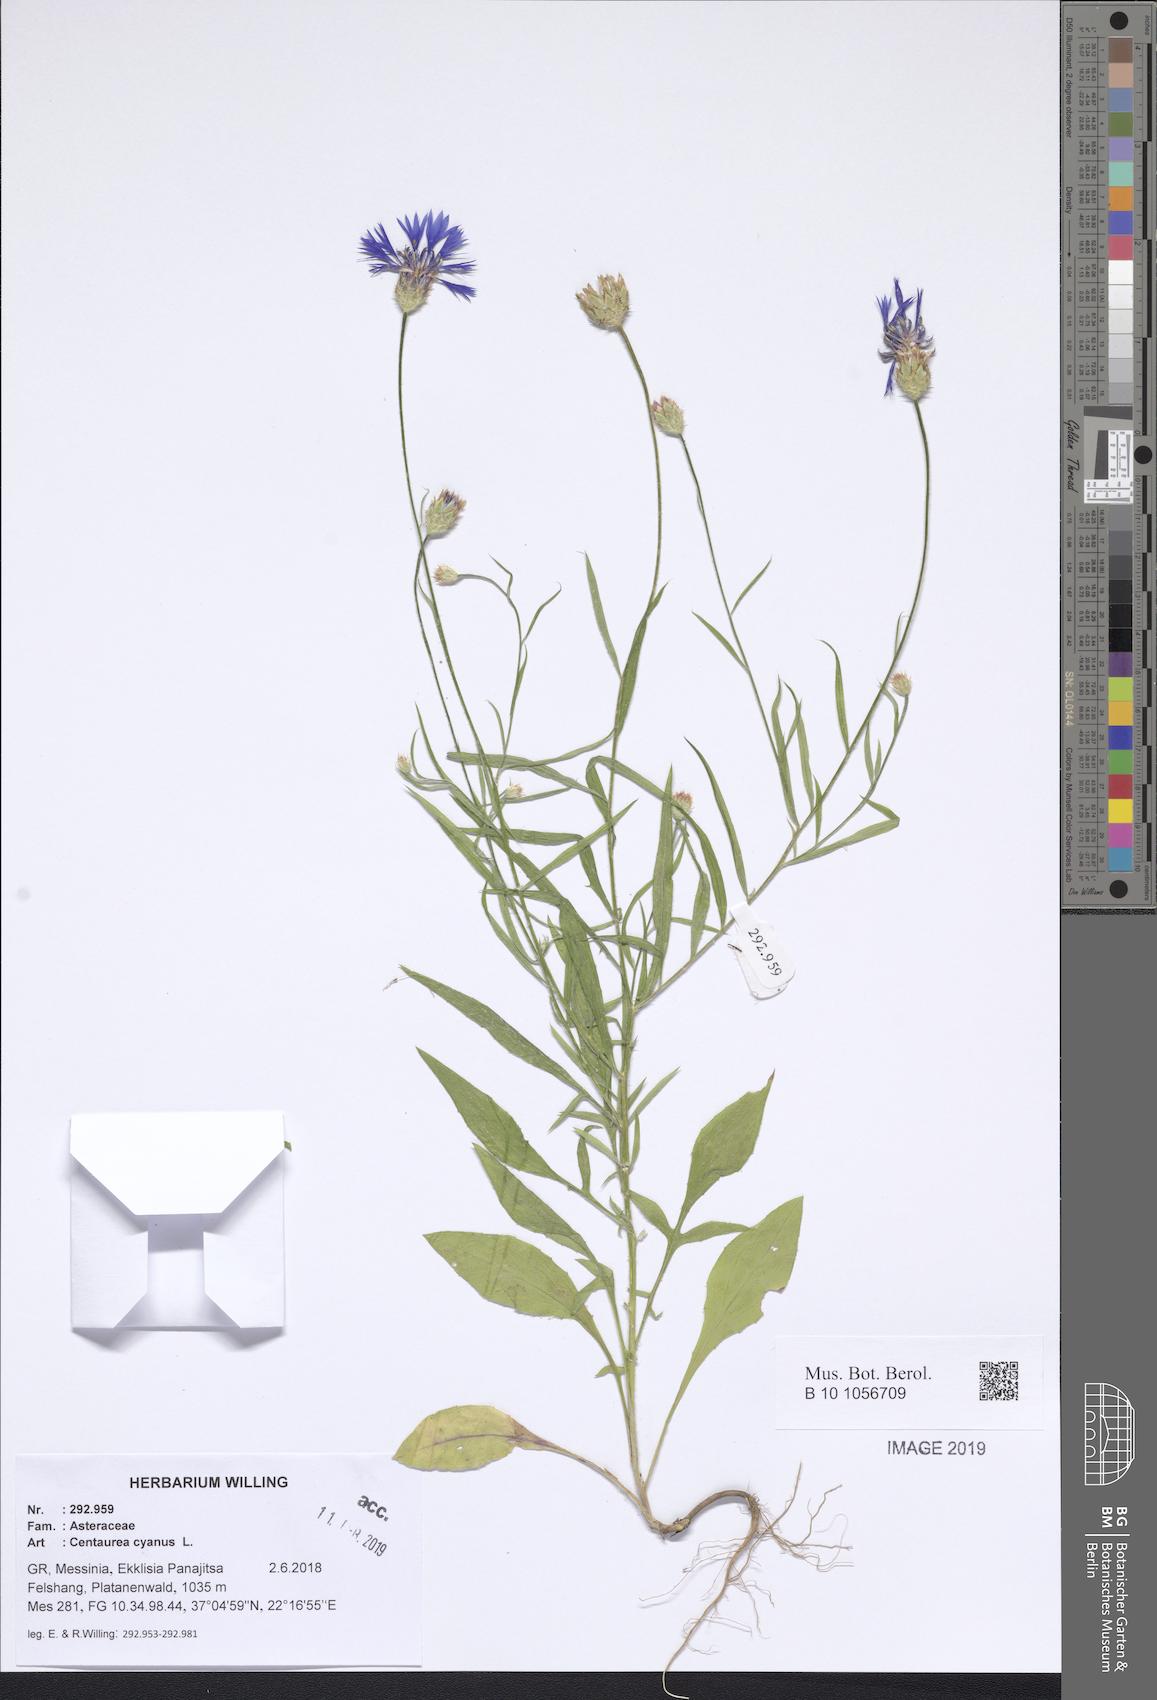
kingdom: Plantae
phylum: Tracheophyta
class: Magnoliopsida
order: Asterales
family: Asteraceae
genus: Centaurea
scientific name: Centaurea cyanus
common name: Cornflower
